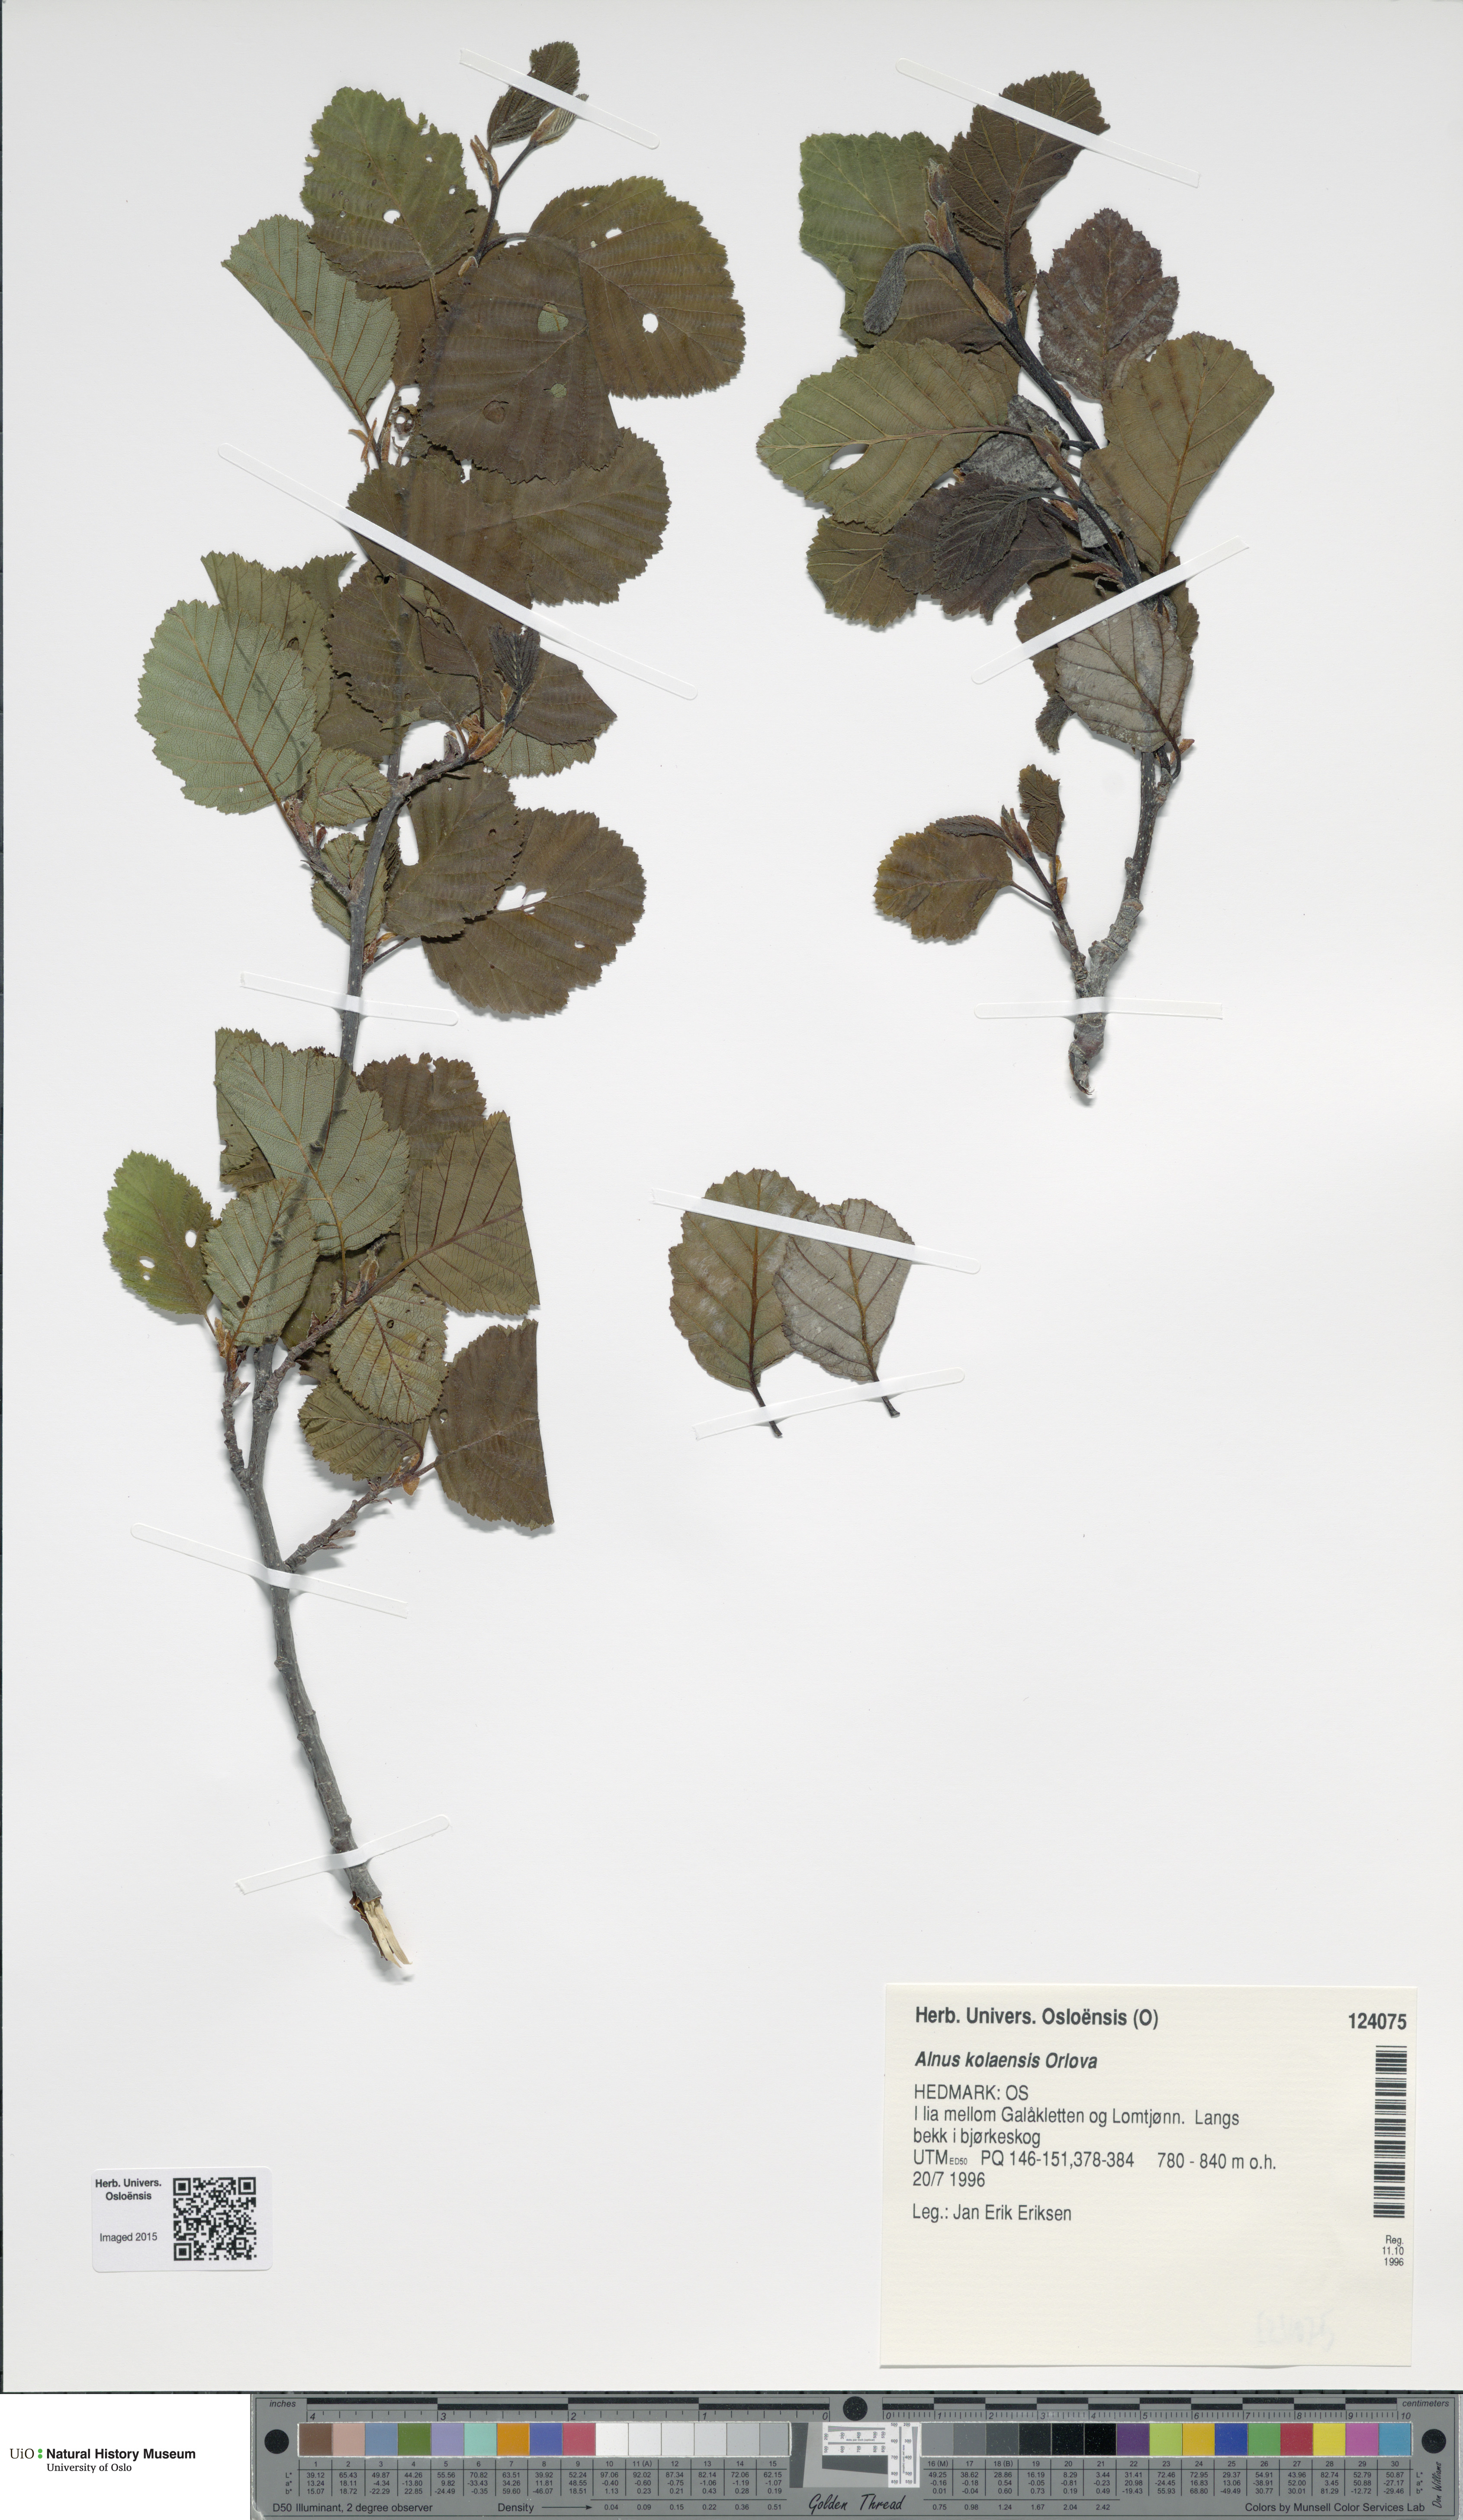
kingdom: Plantae
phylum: Tracheophyta
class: Magnoliopsida
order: Fagales
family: Betulaceae
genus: Alnus
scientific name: Alnus incana
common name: Grey alder
